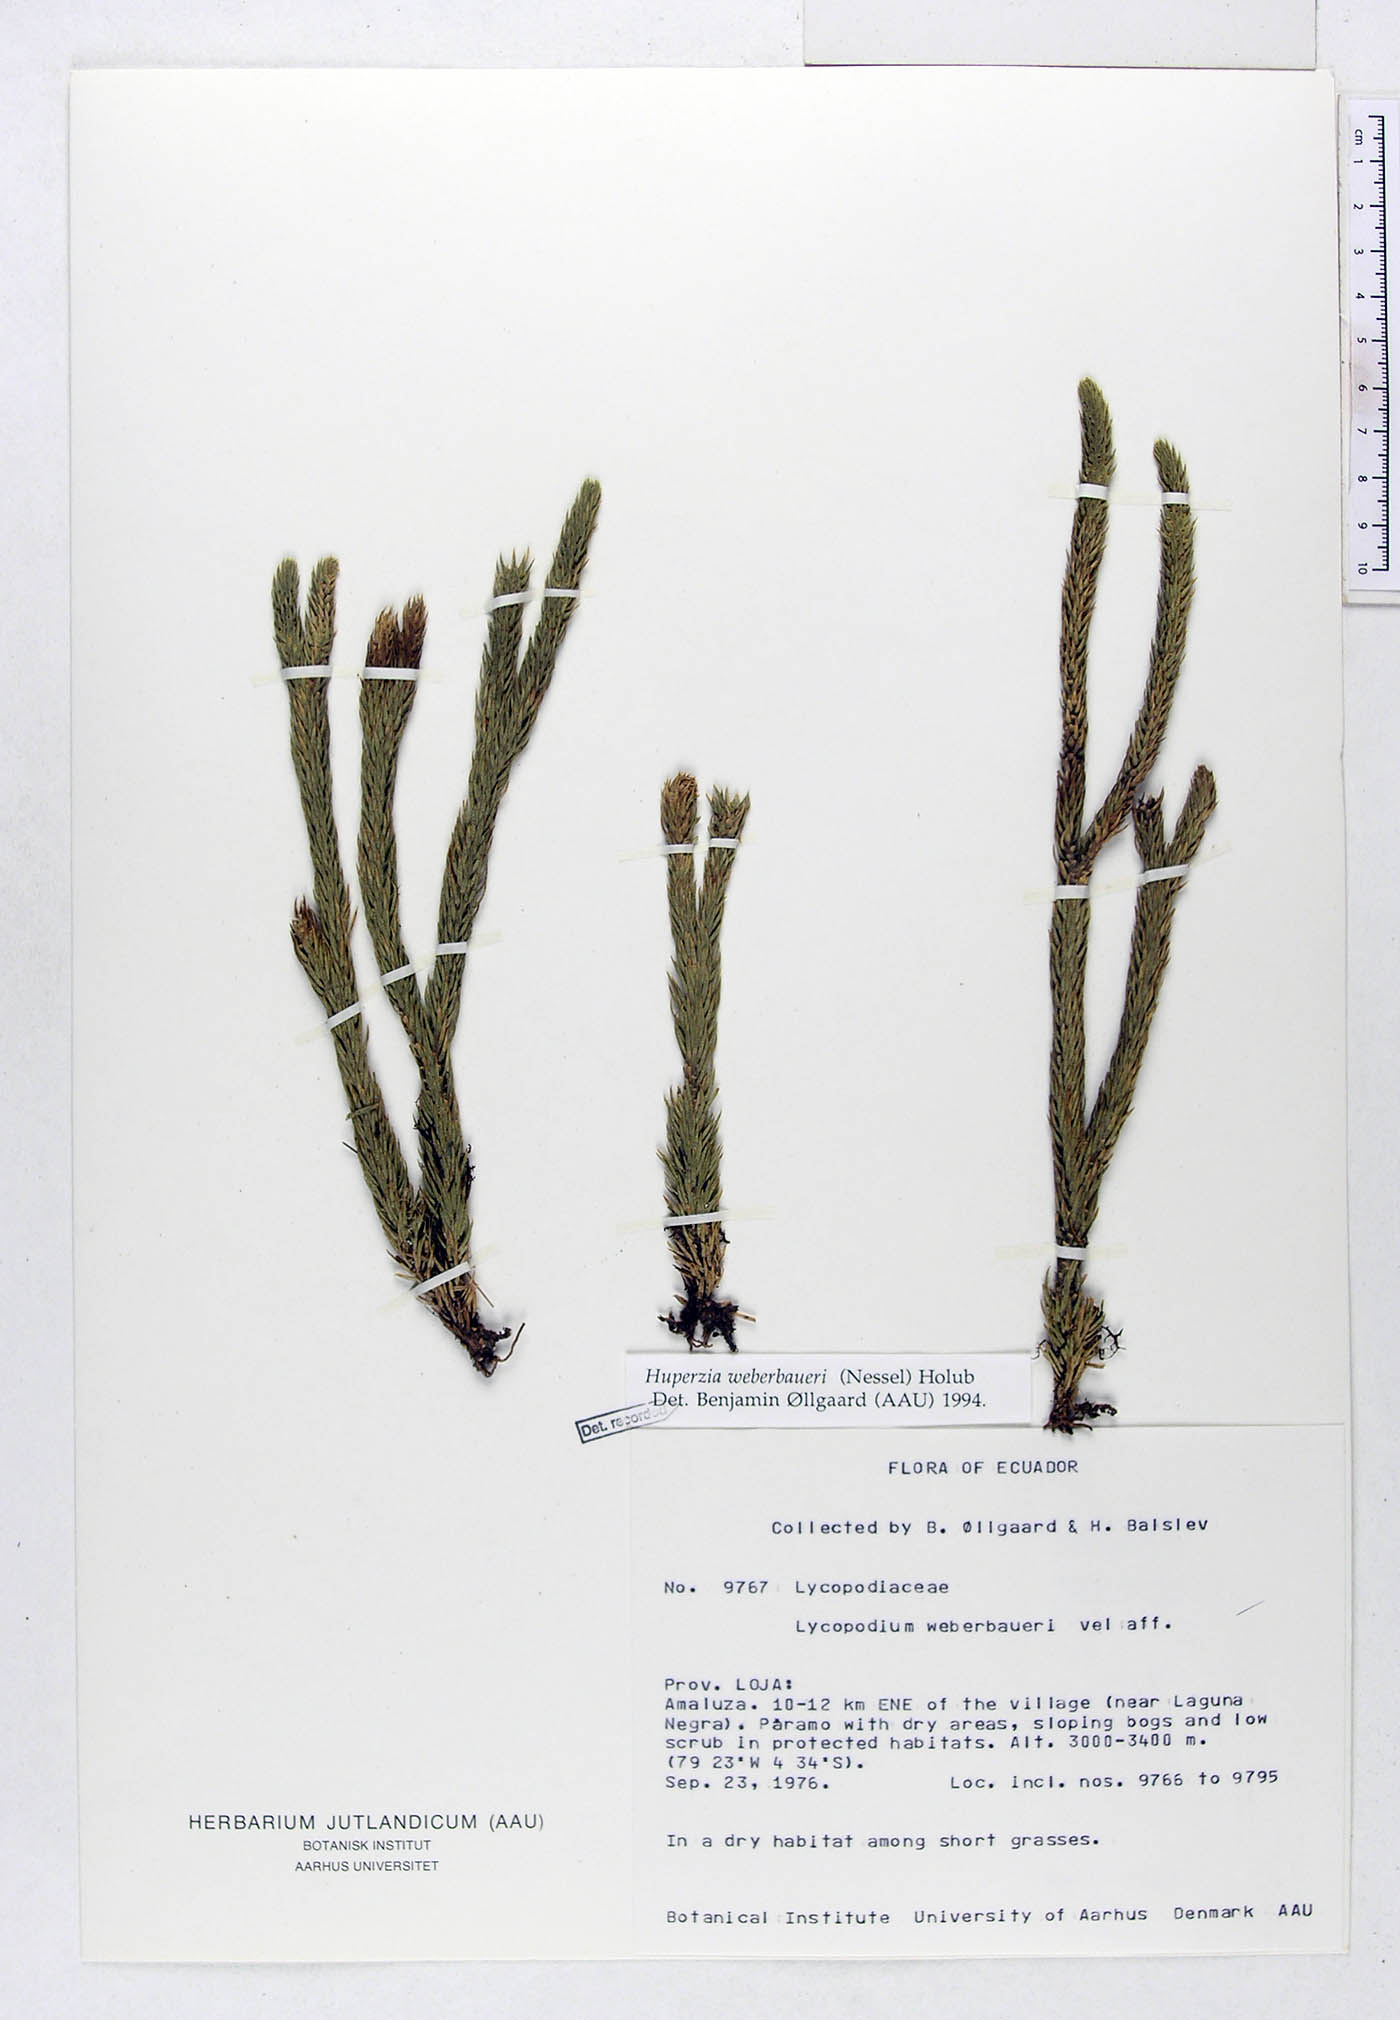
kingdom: Plantae
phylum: Tracheophyta
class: Lycopodiopsida
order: Lycopodiales
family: Lycopodiaceae
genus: Phlegmariurus
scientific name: Phlegmariurus weberbaueri
